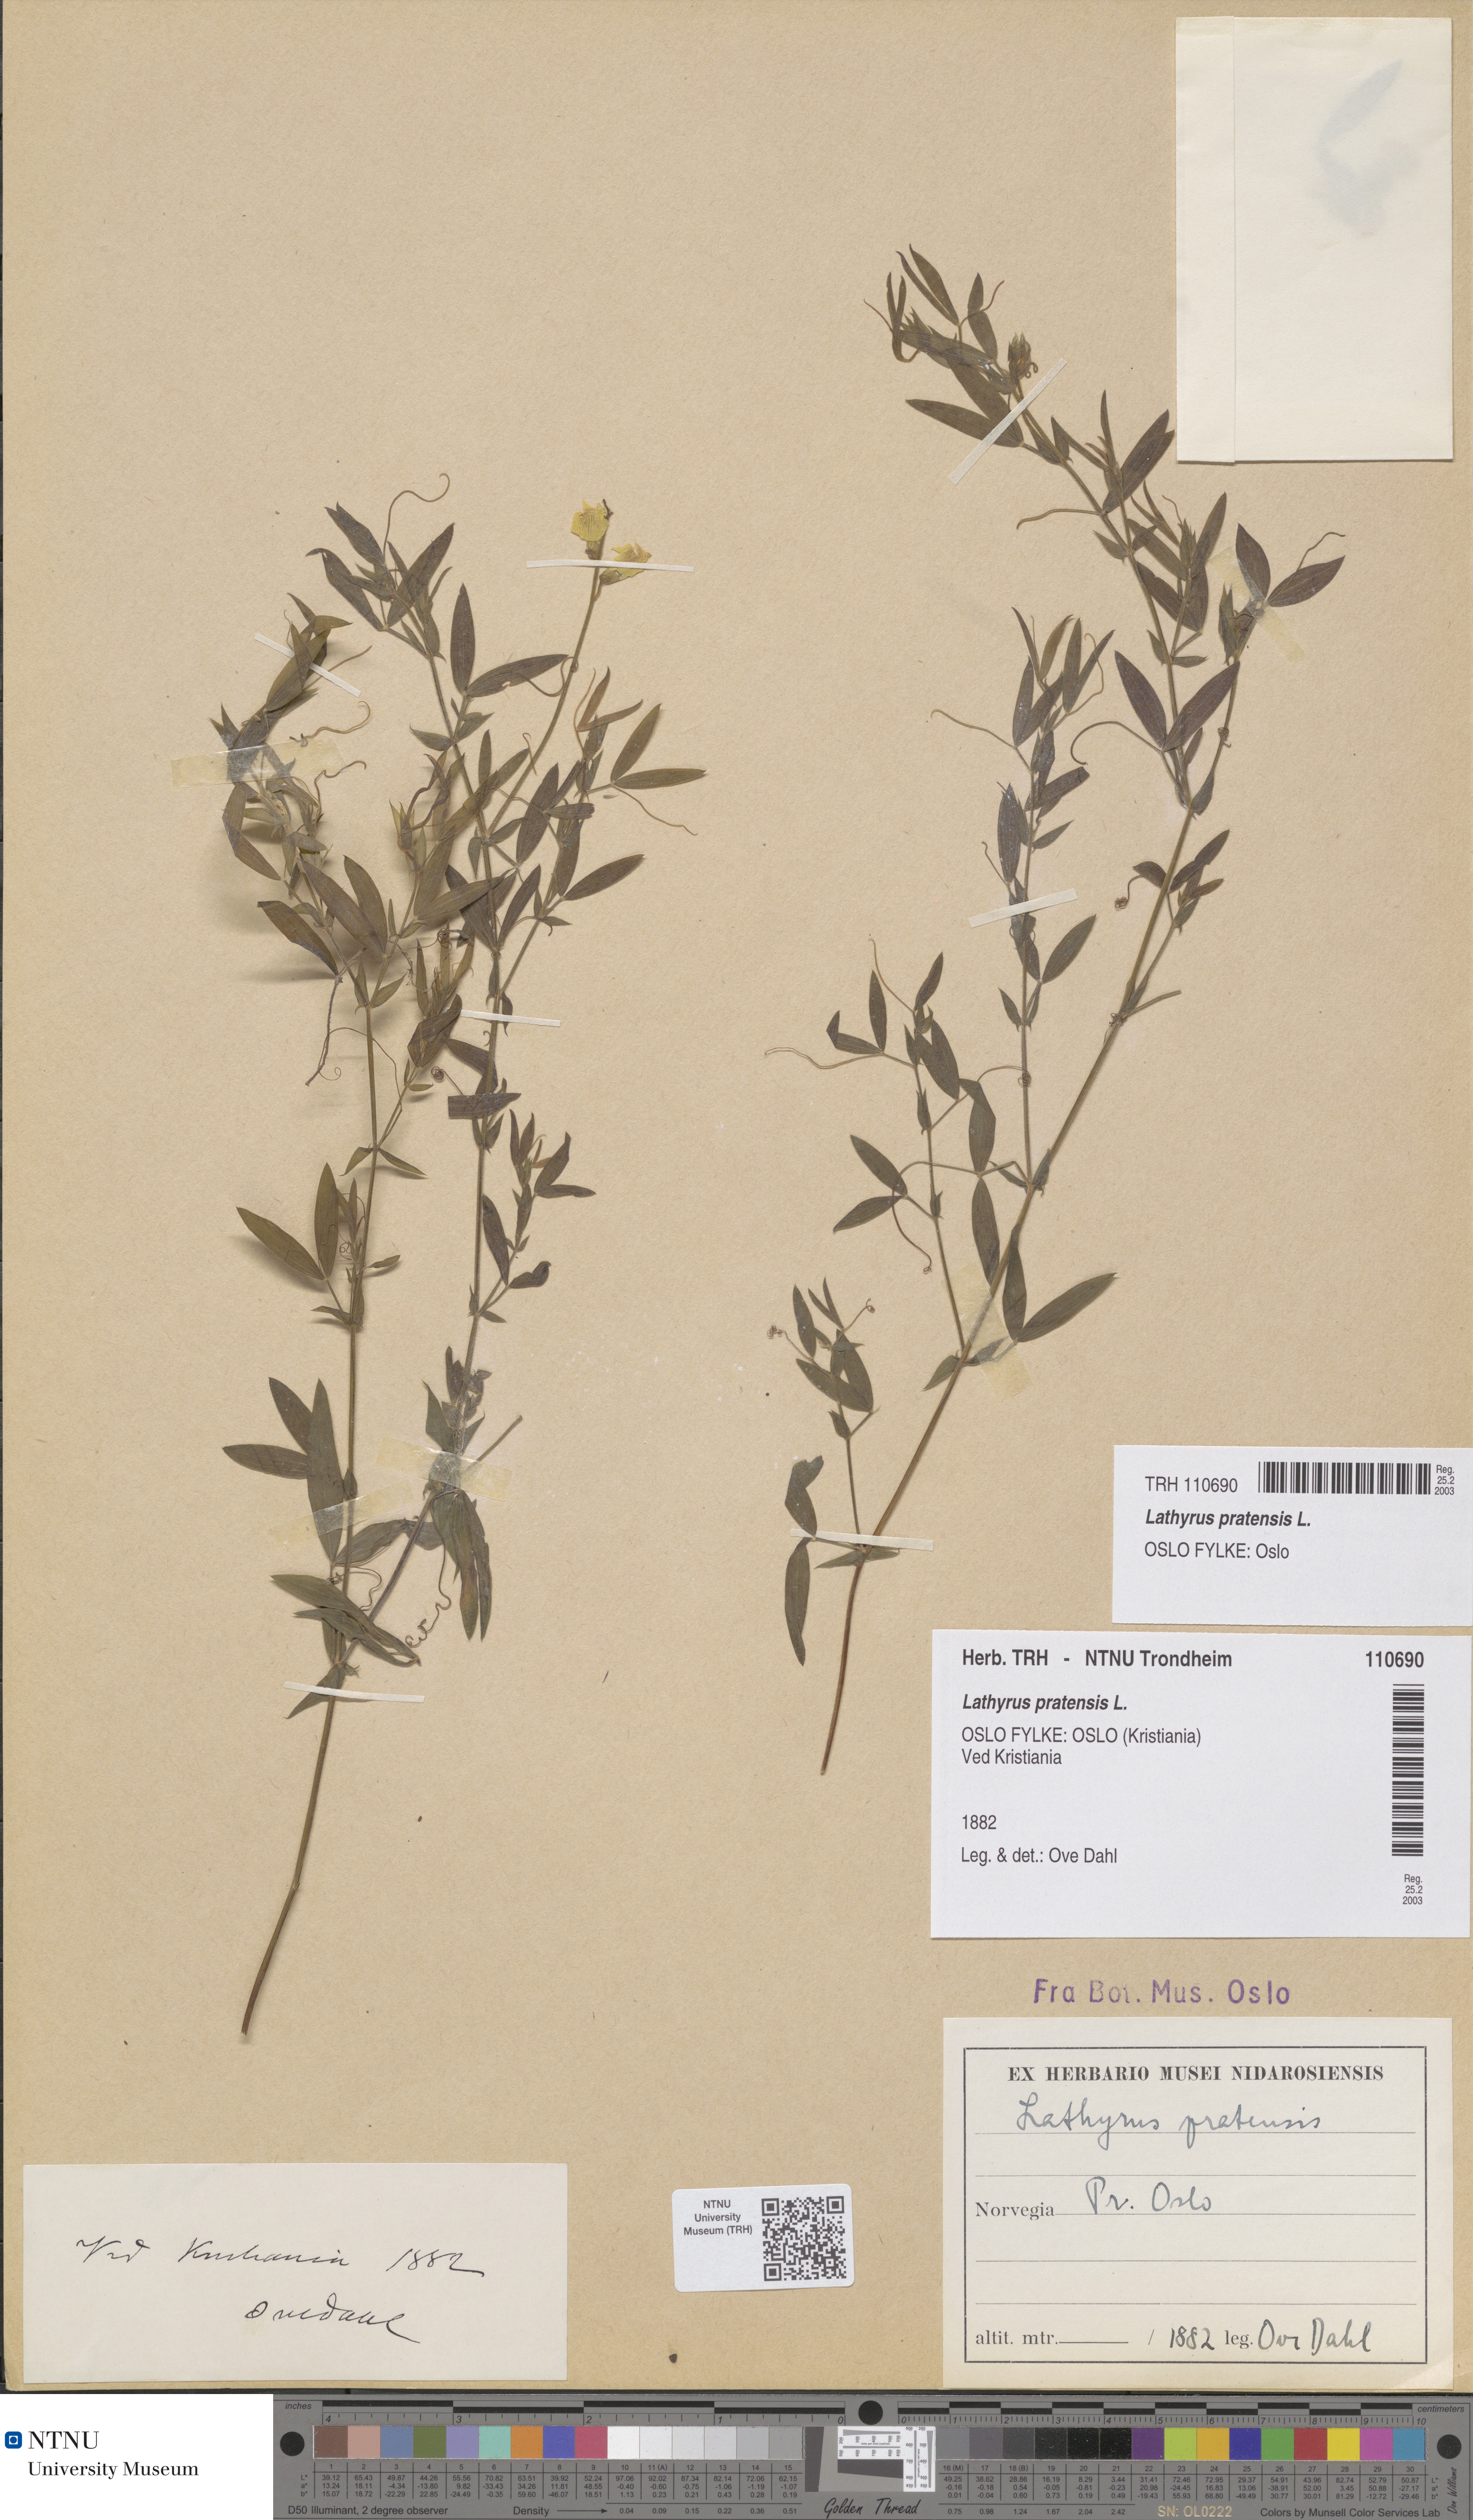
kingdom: Plantae
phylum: Tracheophyta
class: Magnoliopsida
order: Fabales
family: Fabaceae
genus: Lathyrus
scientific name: Lathyrus pratensis
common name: Meadow vetchling
